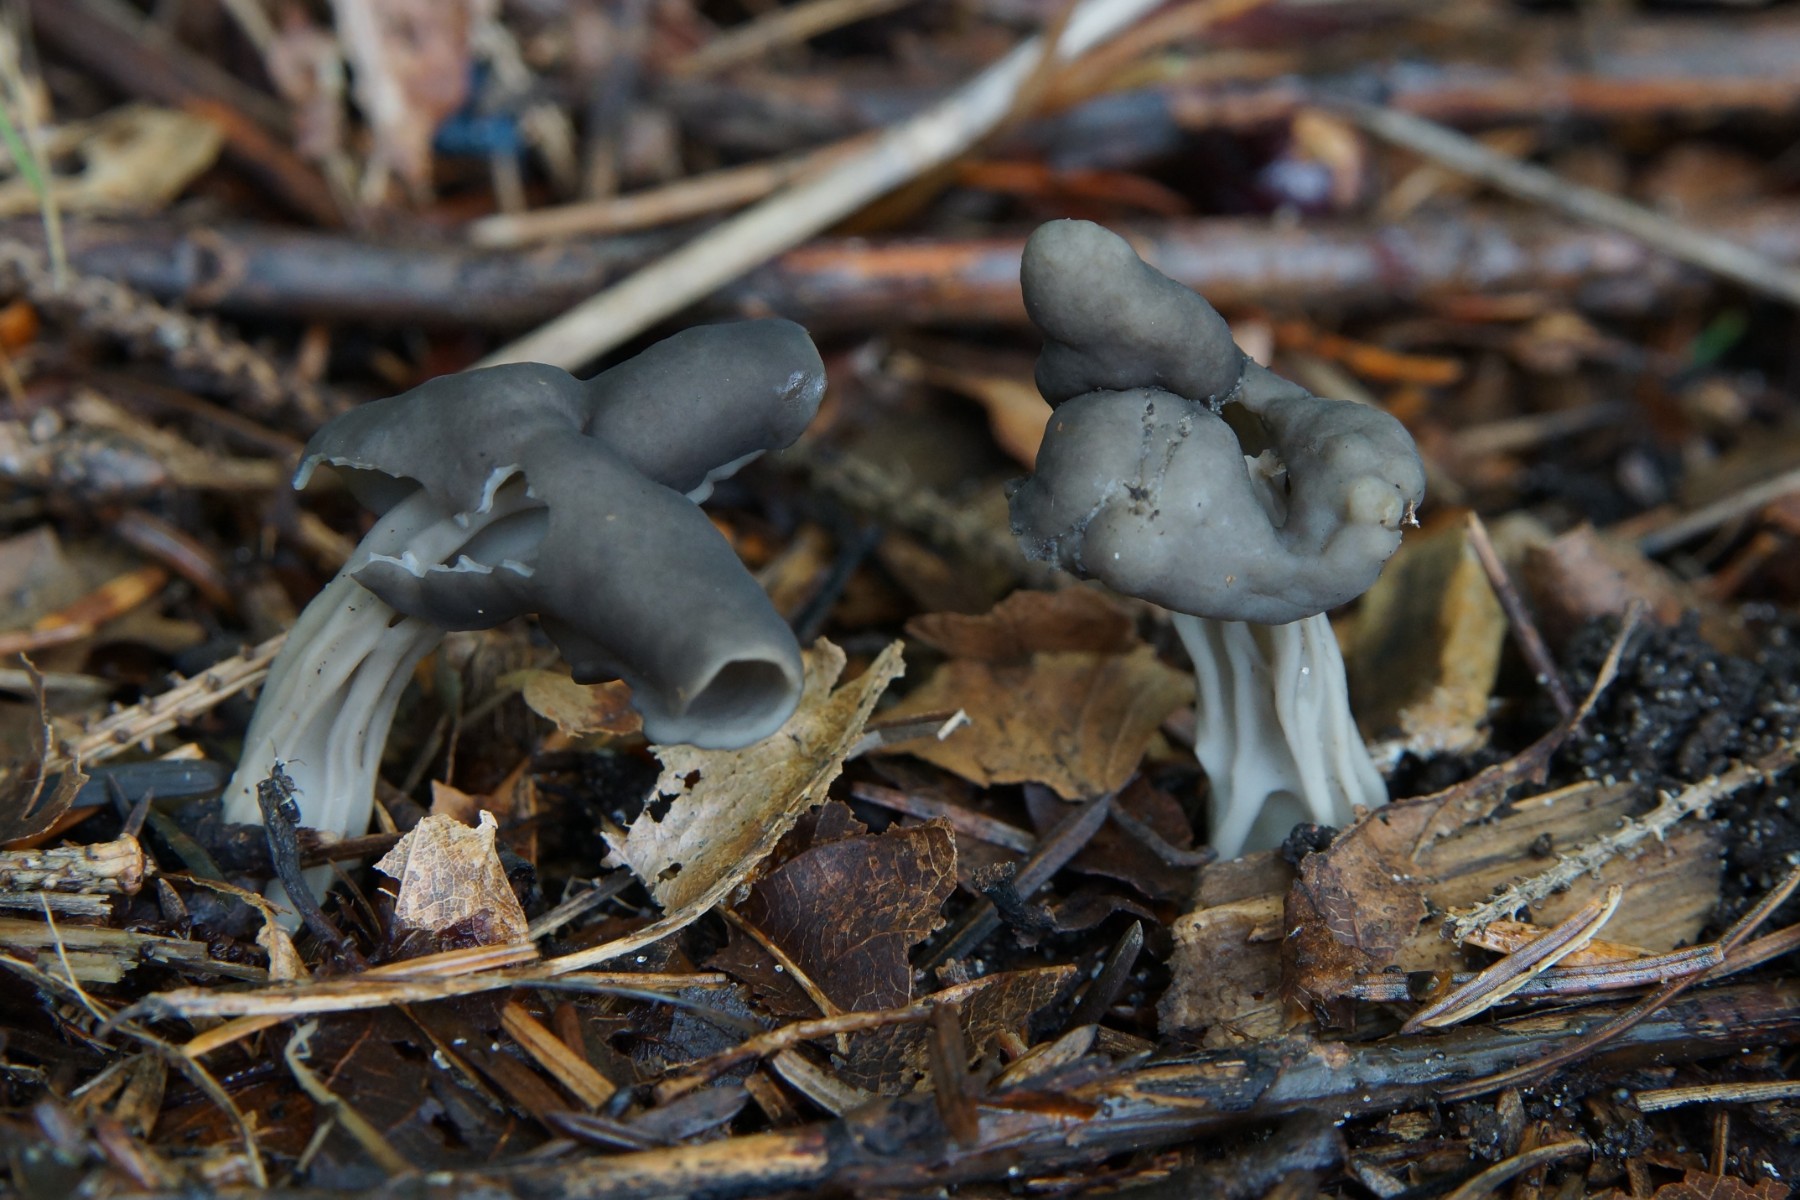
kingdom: Fungi
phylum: Ascomycota
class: Pezizomycetes
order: Pezizales
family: Helvellaceae
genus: Helvella
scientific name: Helvella lacunosa
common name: grubet foldhat
